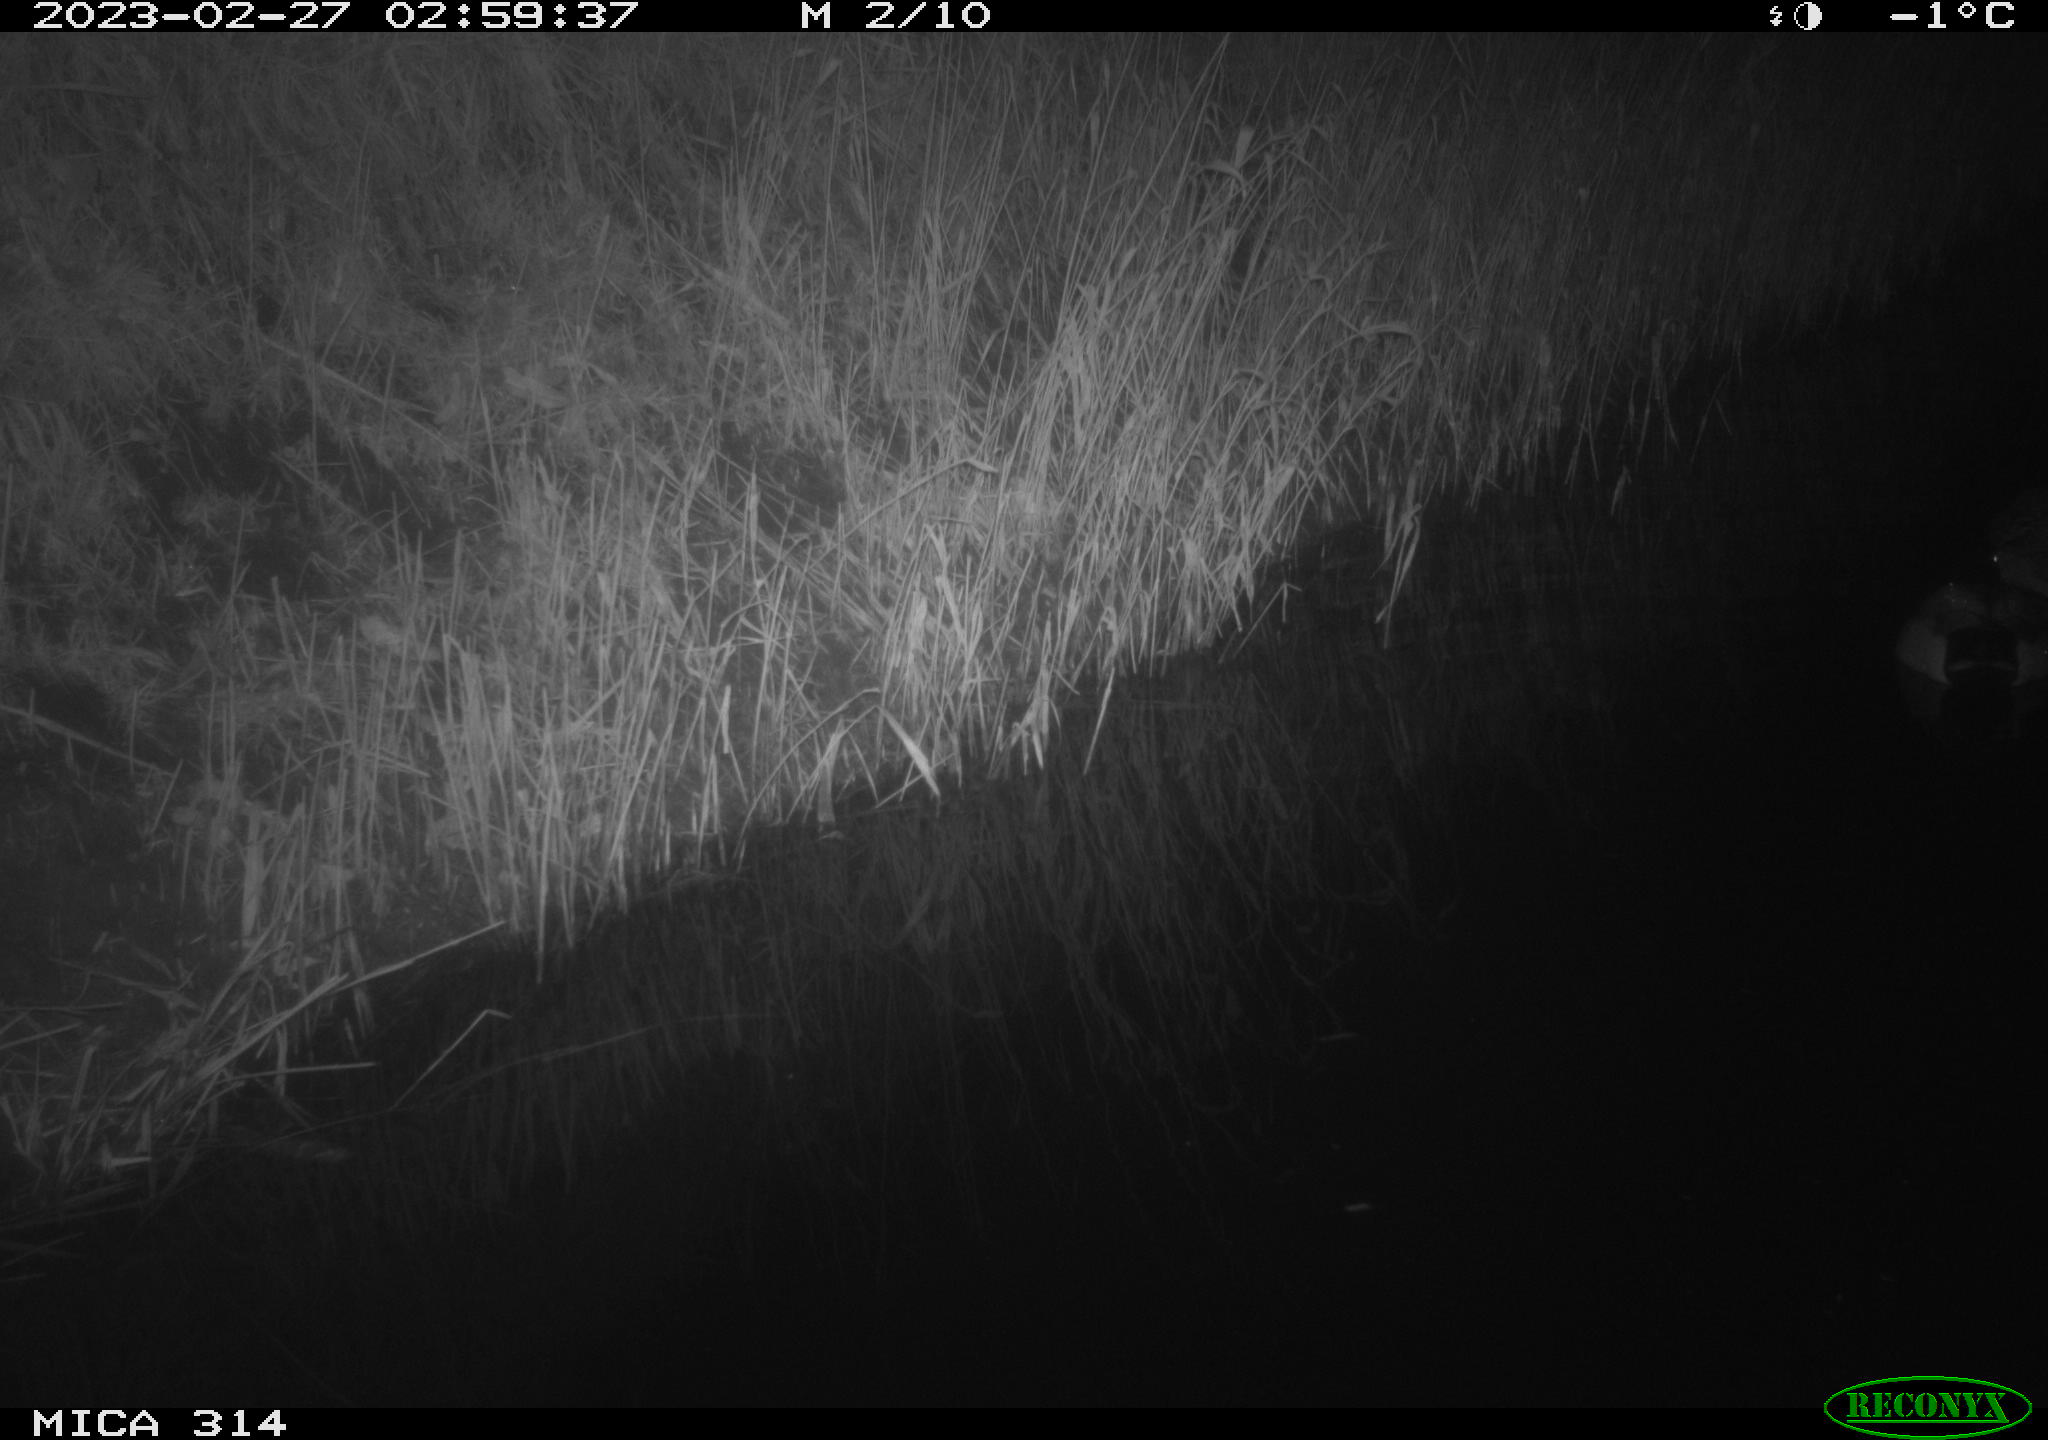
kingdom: Animalia
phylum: Chordata
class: Mammalia
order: Rodentia
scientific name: Rodentia
